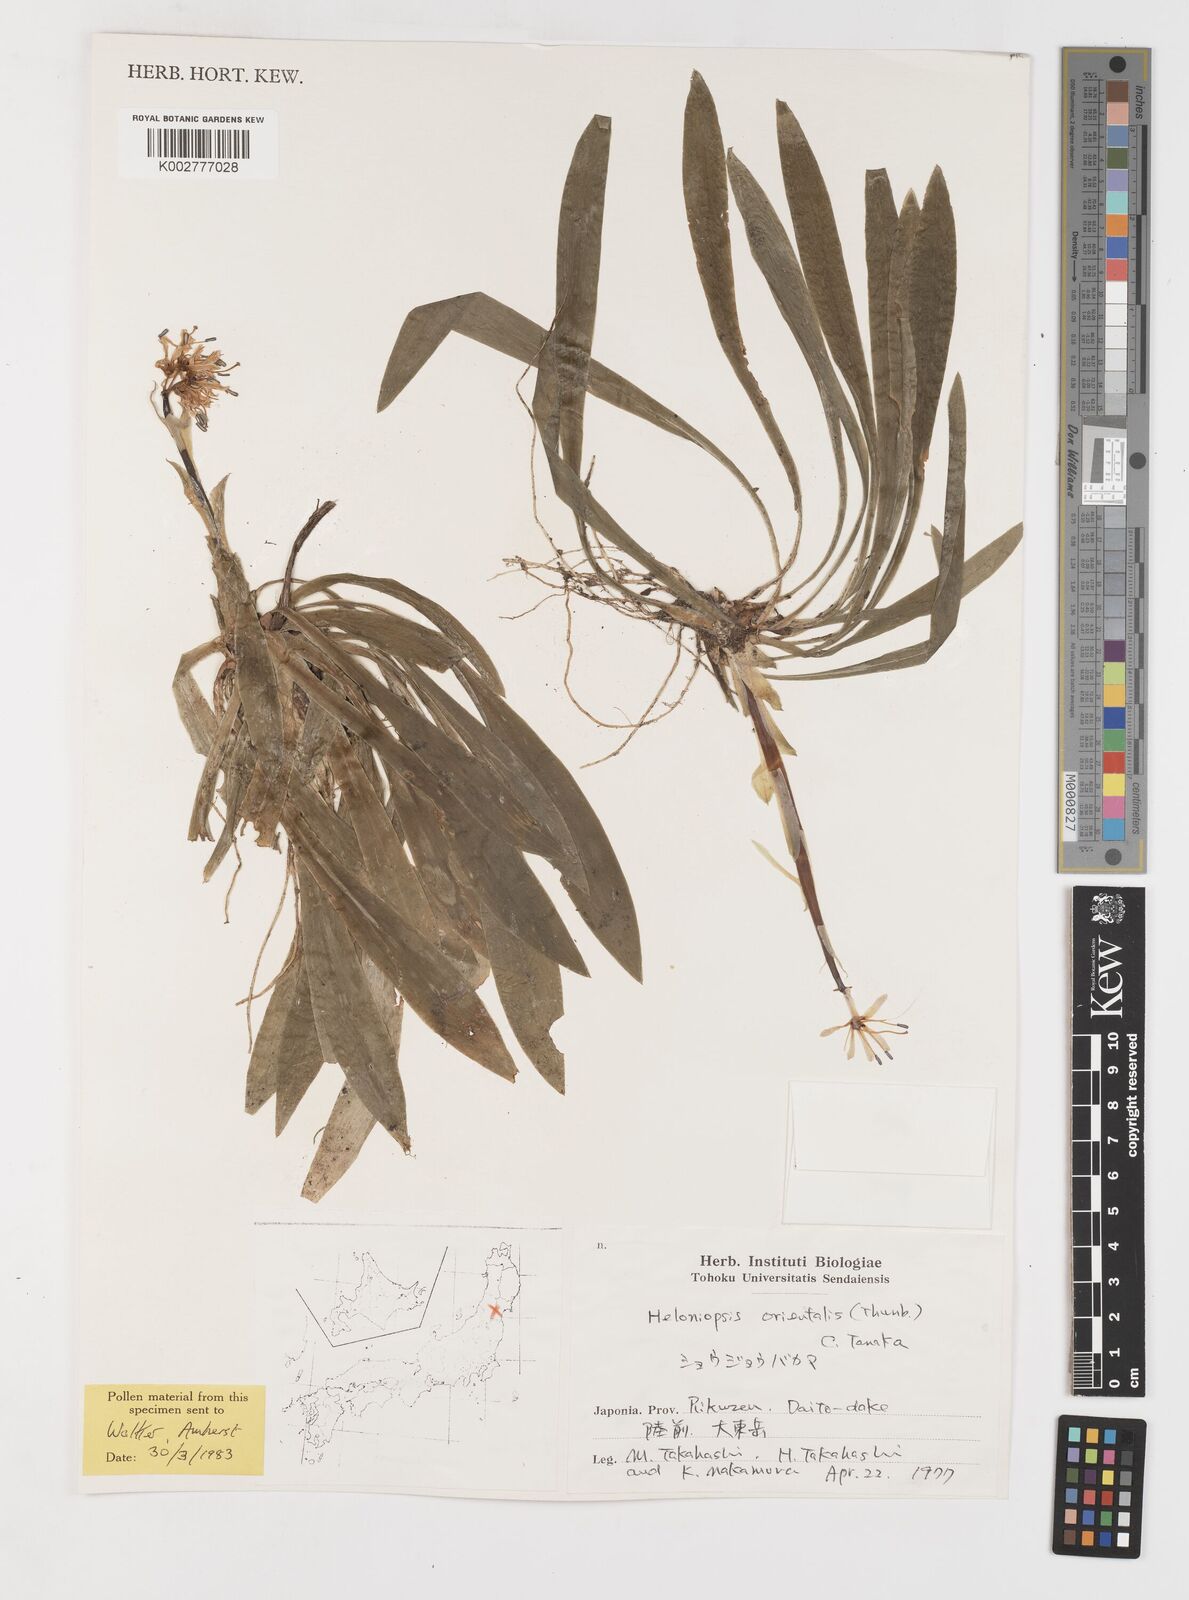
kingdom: Plantae
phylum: Tracheophyta
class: Liliopsida
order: Liliales
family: Melanthiaceae
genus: Helonias
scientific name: Helonias orientalis
